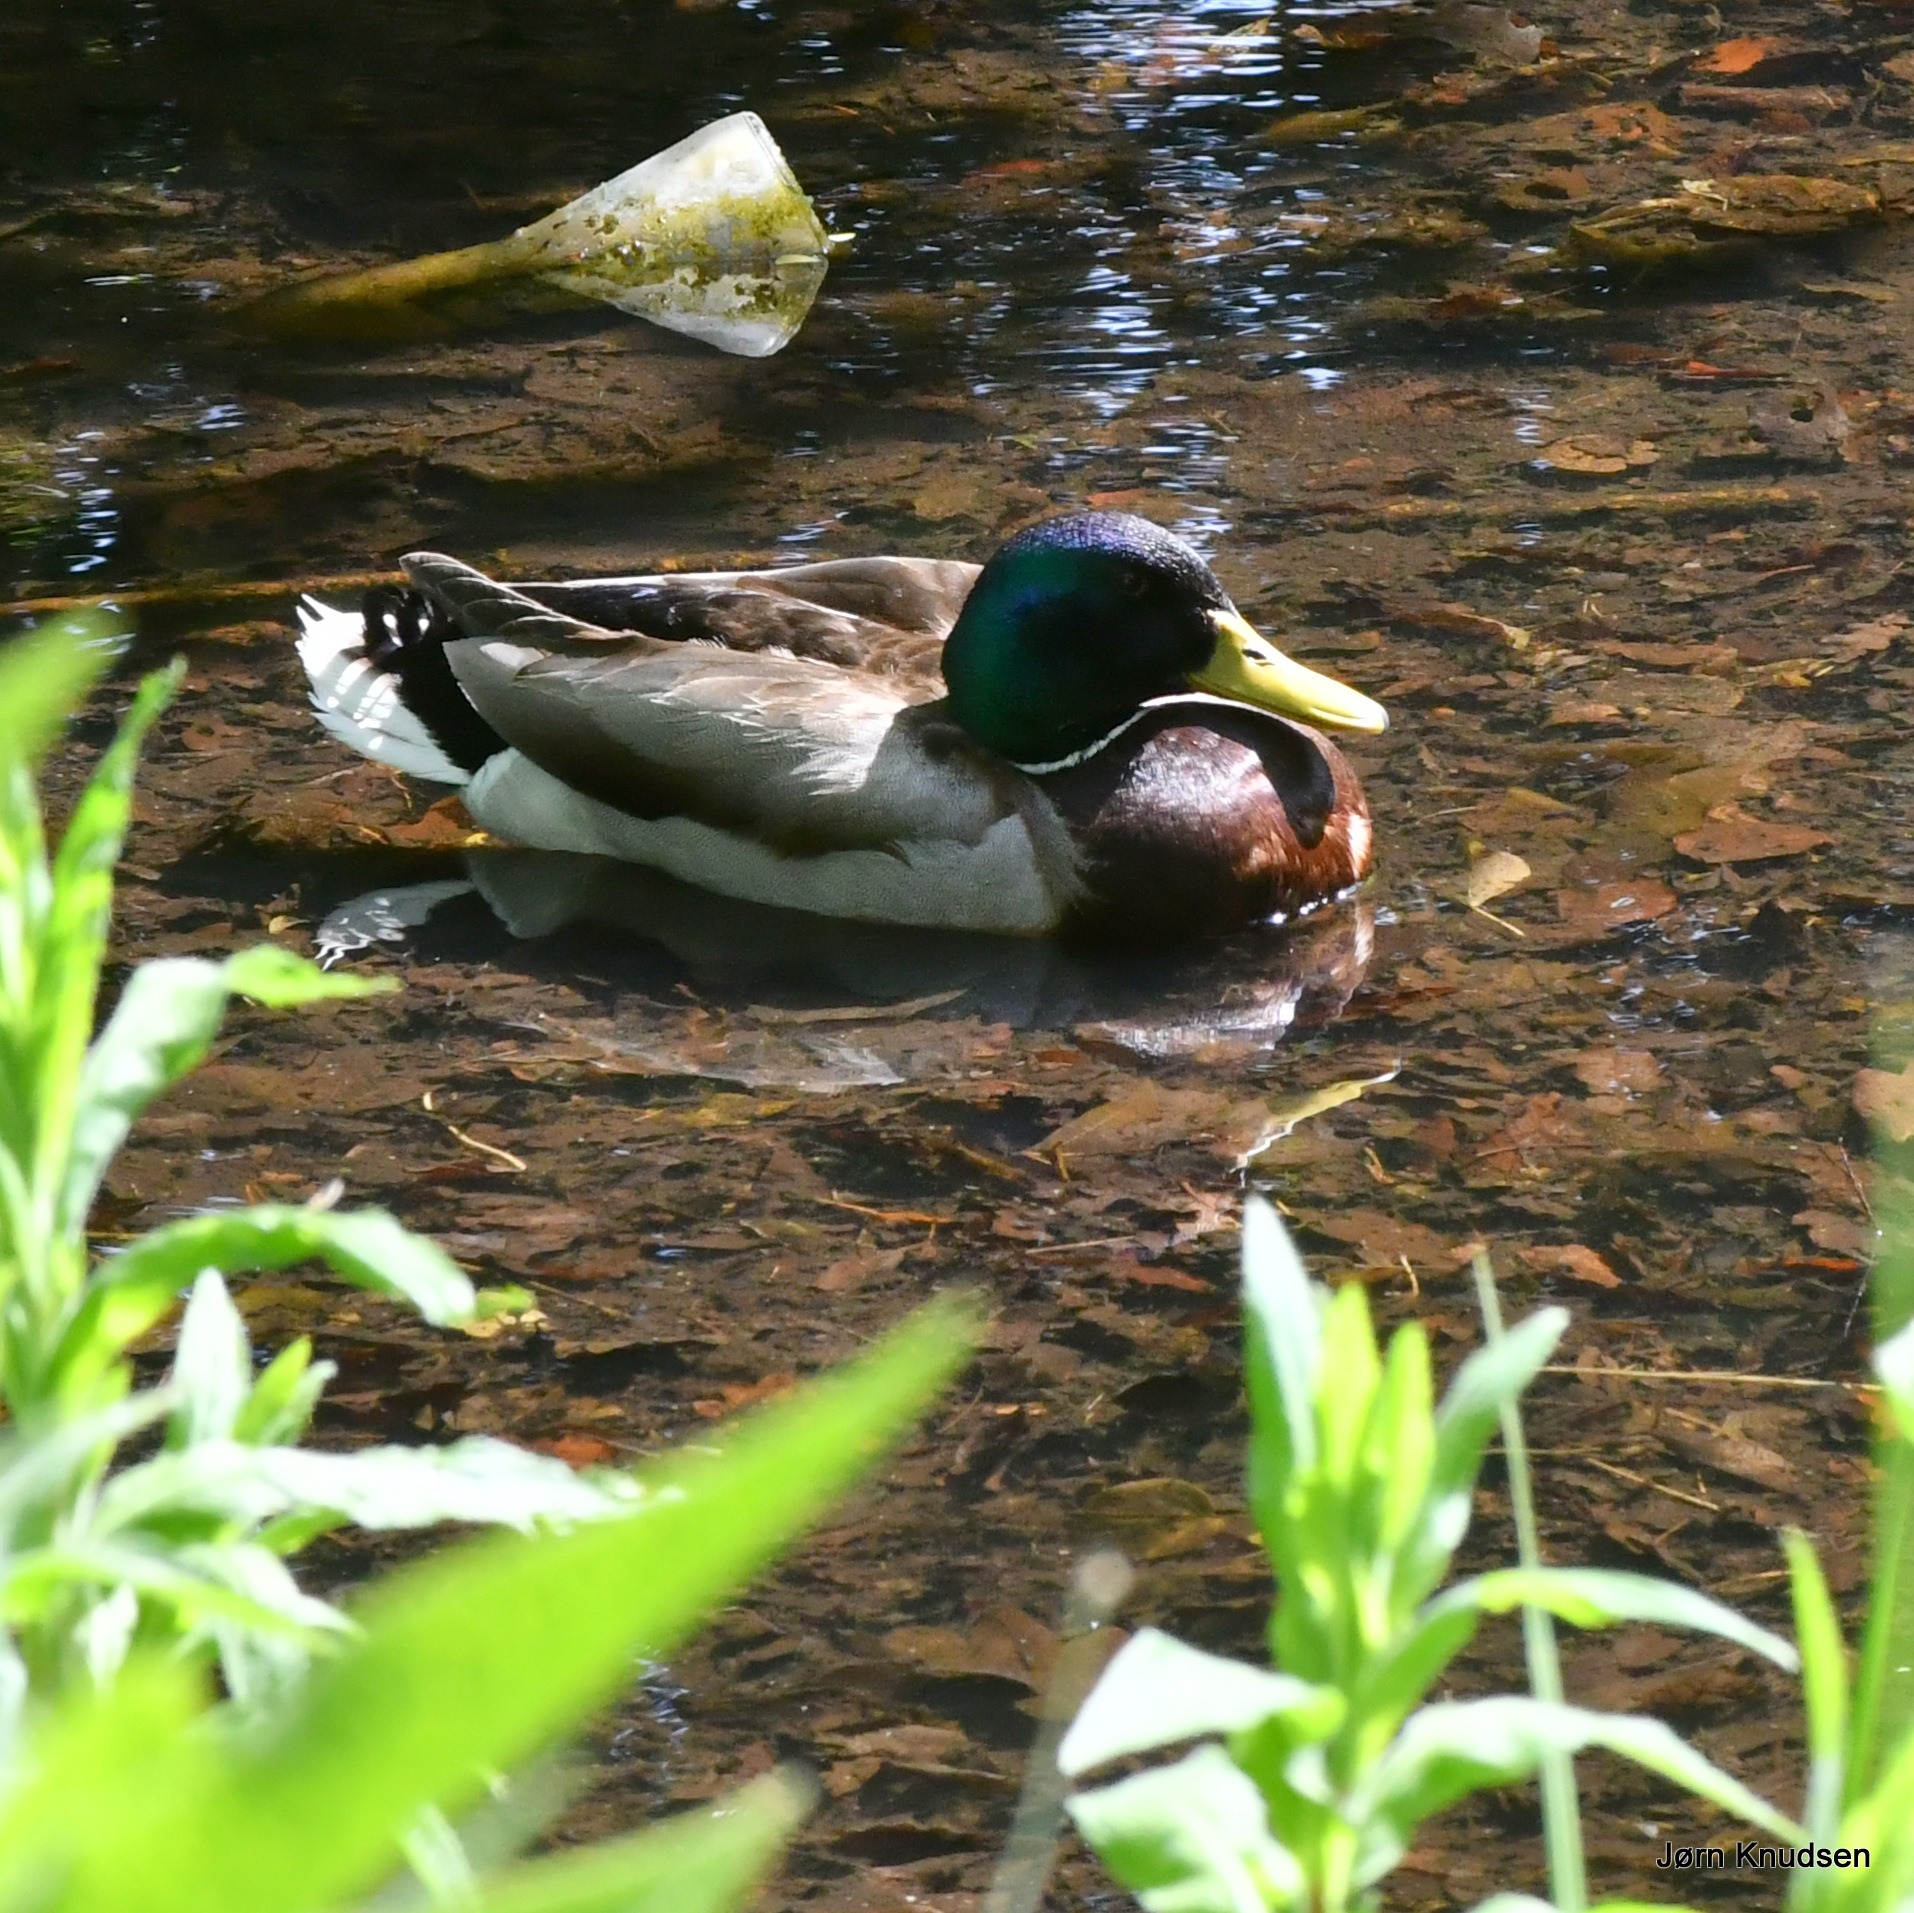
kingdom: Animalia
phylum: Chordata
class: Aves
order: Anseriformes
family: Anatidae
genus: Anas
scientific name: Anas platyrhynchos
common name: Gråand
